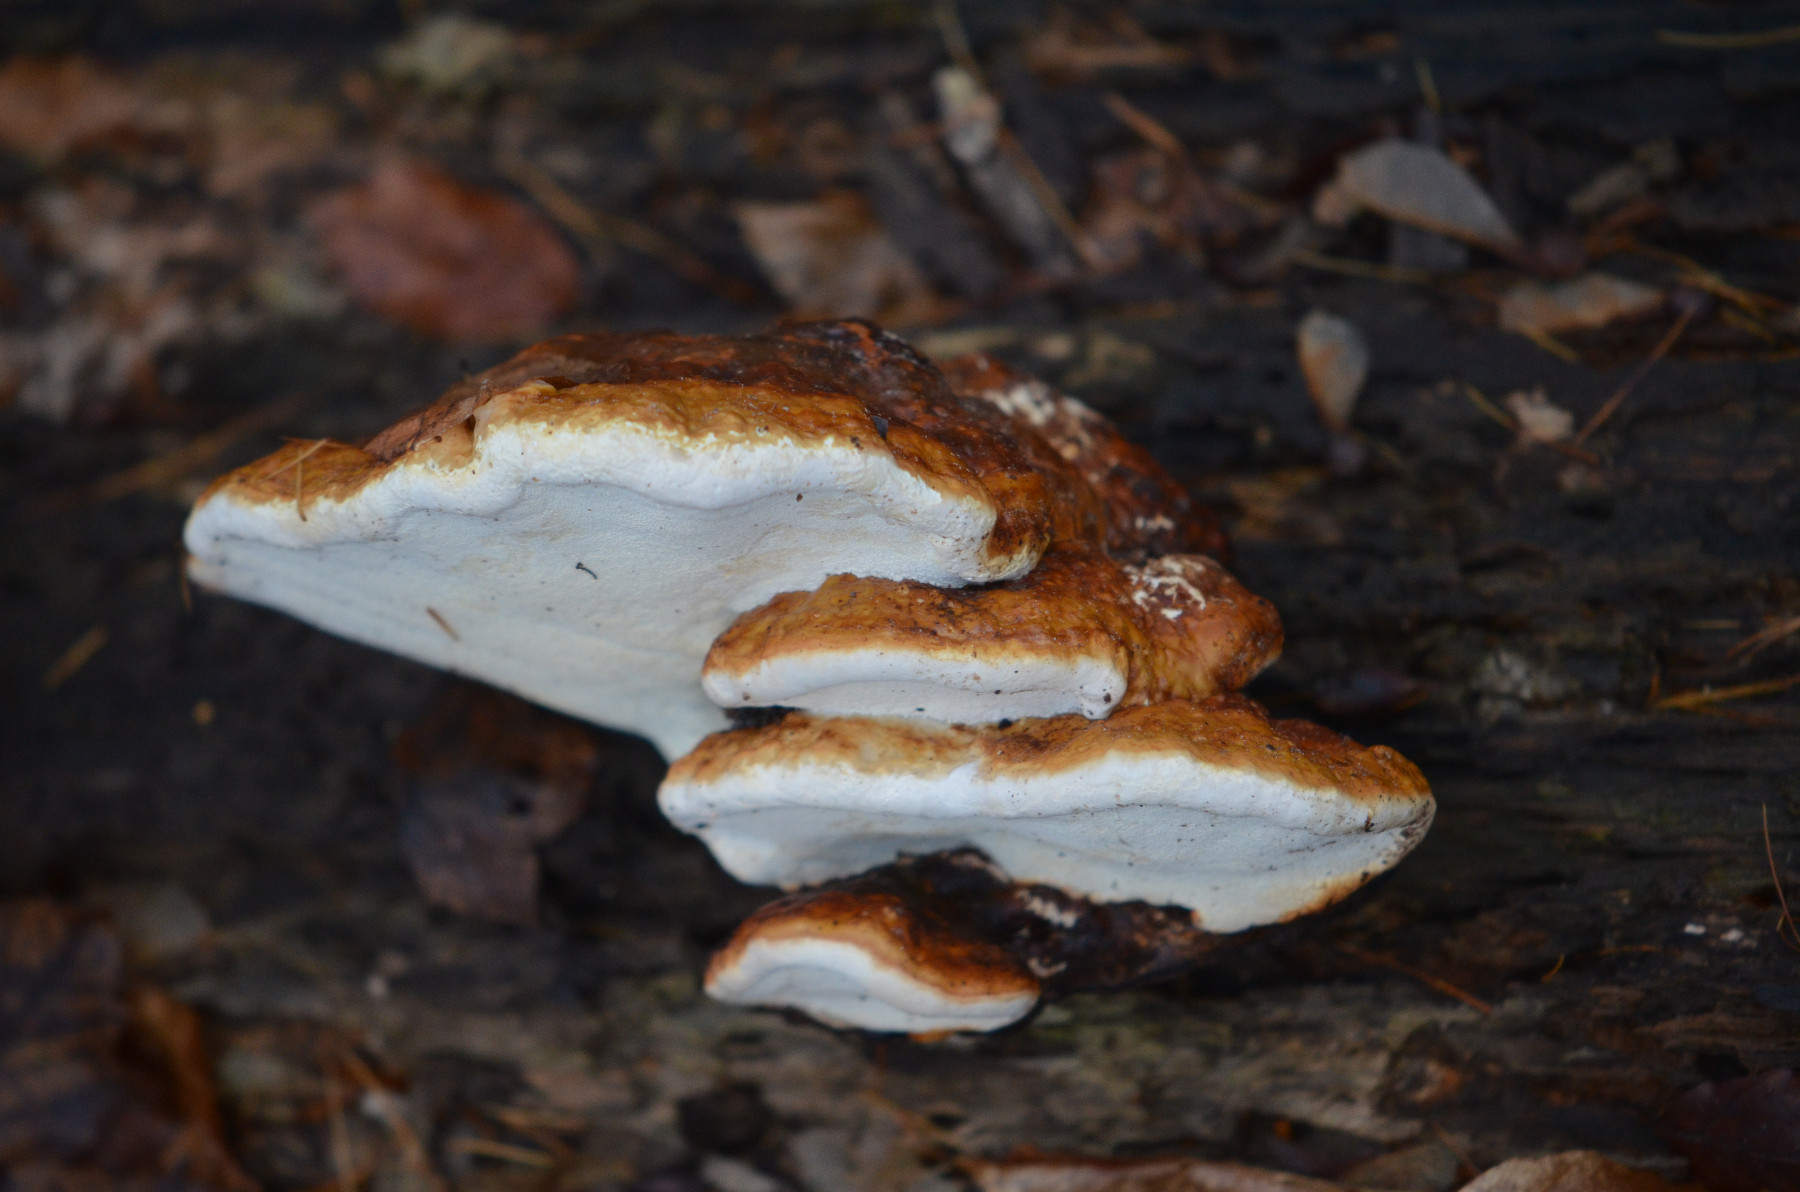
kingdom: Fungi
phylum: Basidiomycota
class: Agaricomycetes
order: Polyporales
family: Fomitopsidaceae
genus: Fomitopsis
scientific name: Fomitopsis pinicola
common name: randbæltet hovporesvamp
